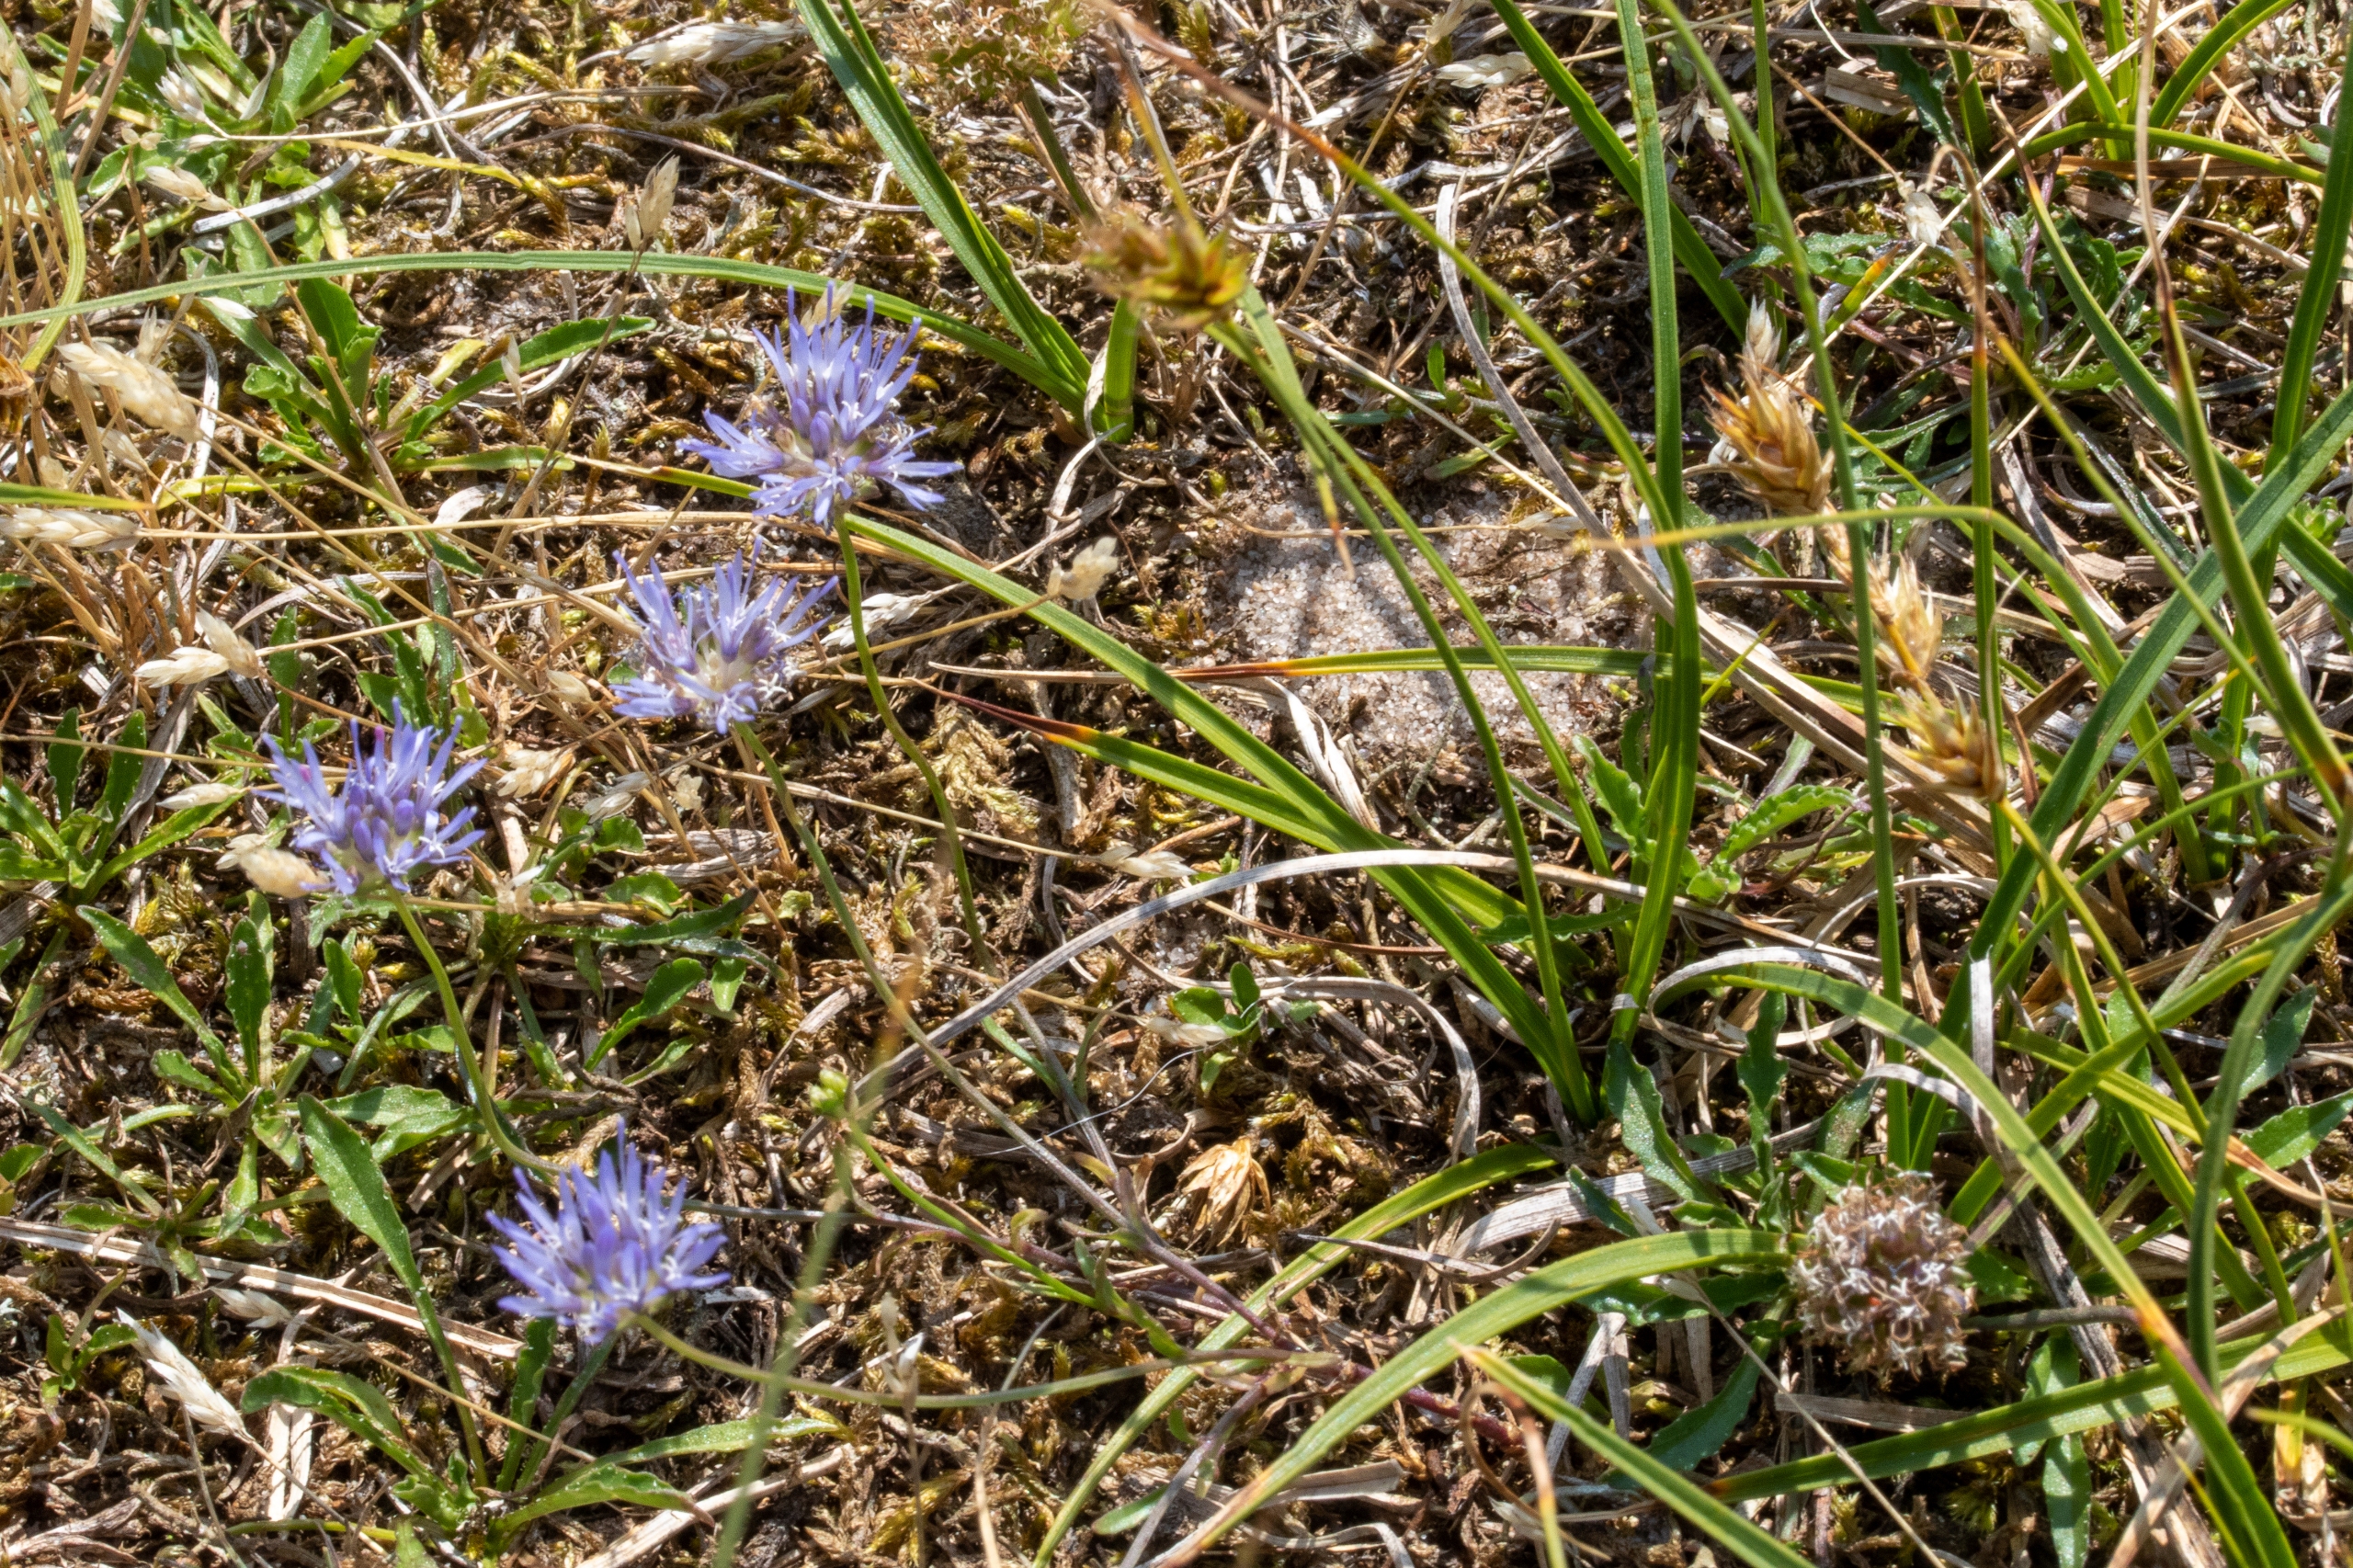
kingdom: Plantae
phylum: Tracheophyta
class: Magnoliopsida
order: Asterales
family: Campanulaceae
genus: Jasione
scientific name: Jasione montana
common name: Blåmunke
